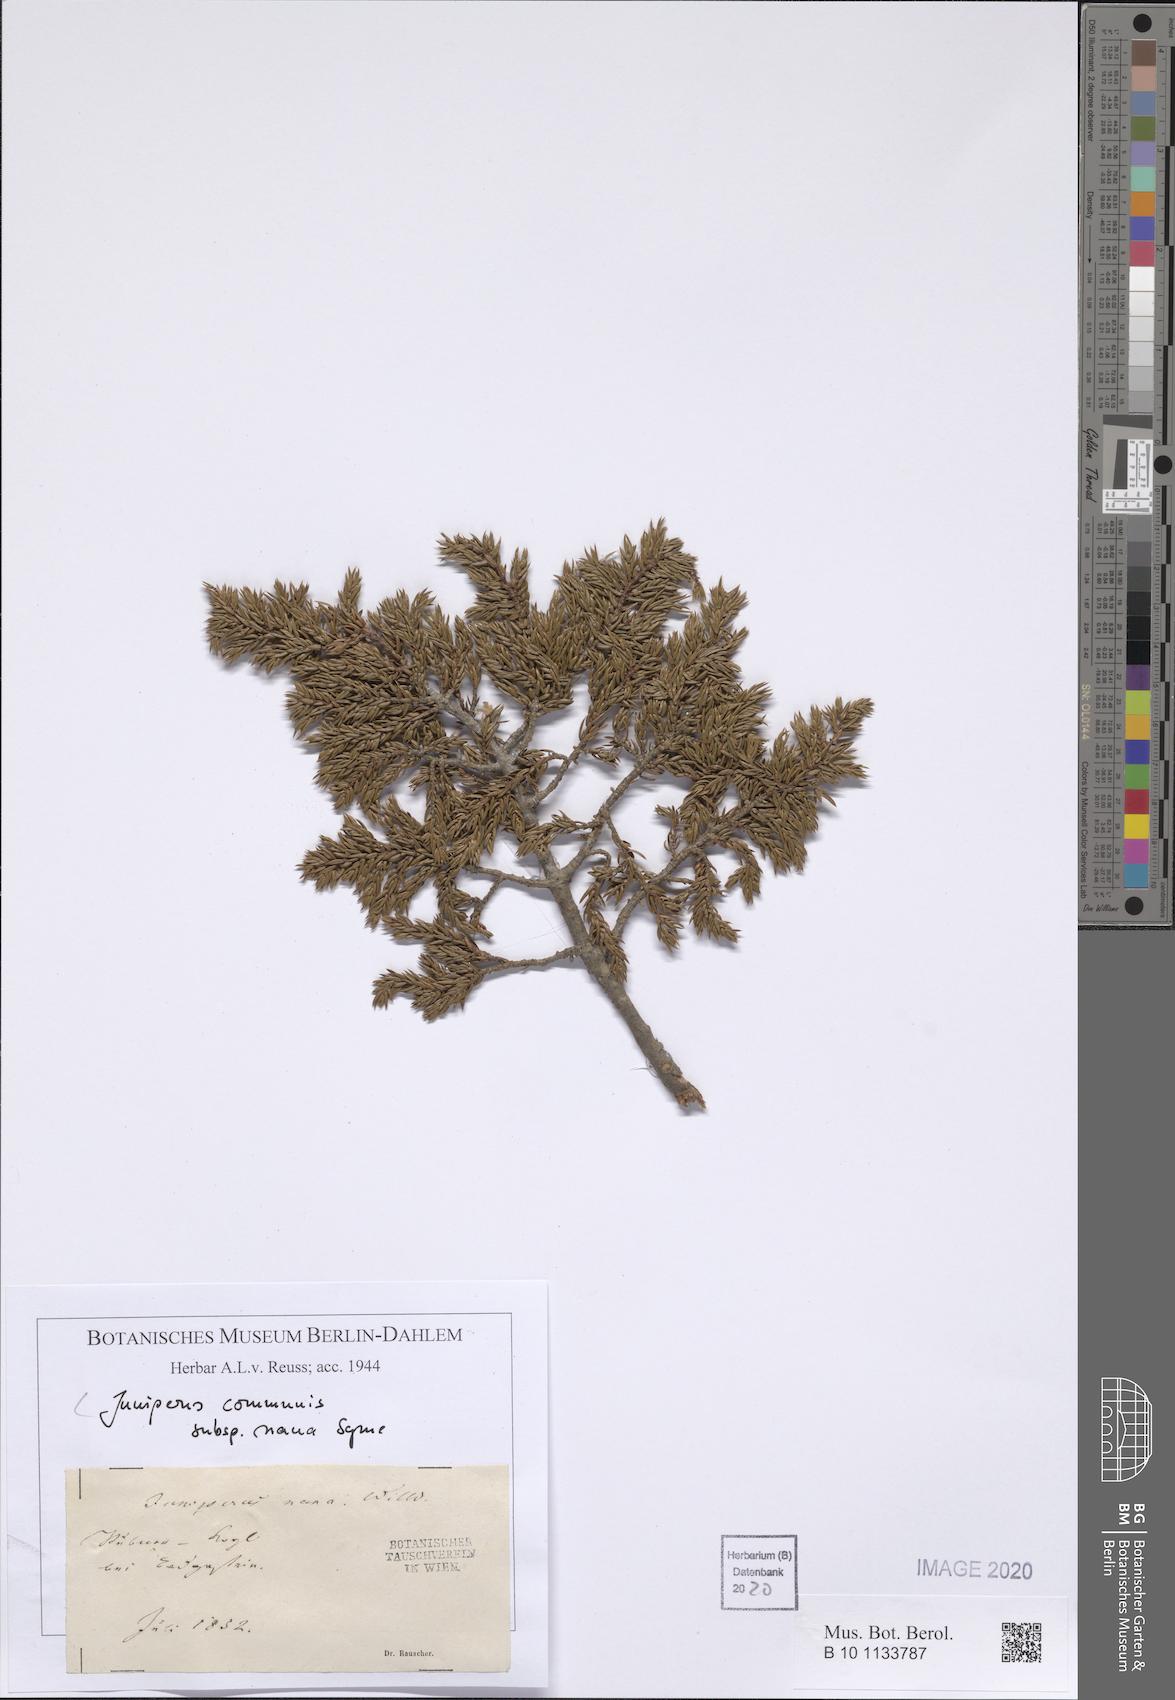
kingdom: Plantae
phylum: Tracheophyta
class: Pinopsida
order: Pinales
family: Cupressaceae
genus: Juniperus
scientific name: Juniperus communis
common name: Common juniper
